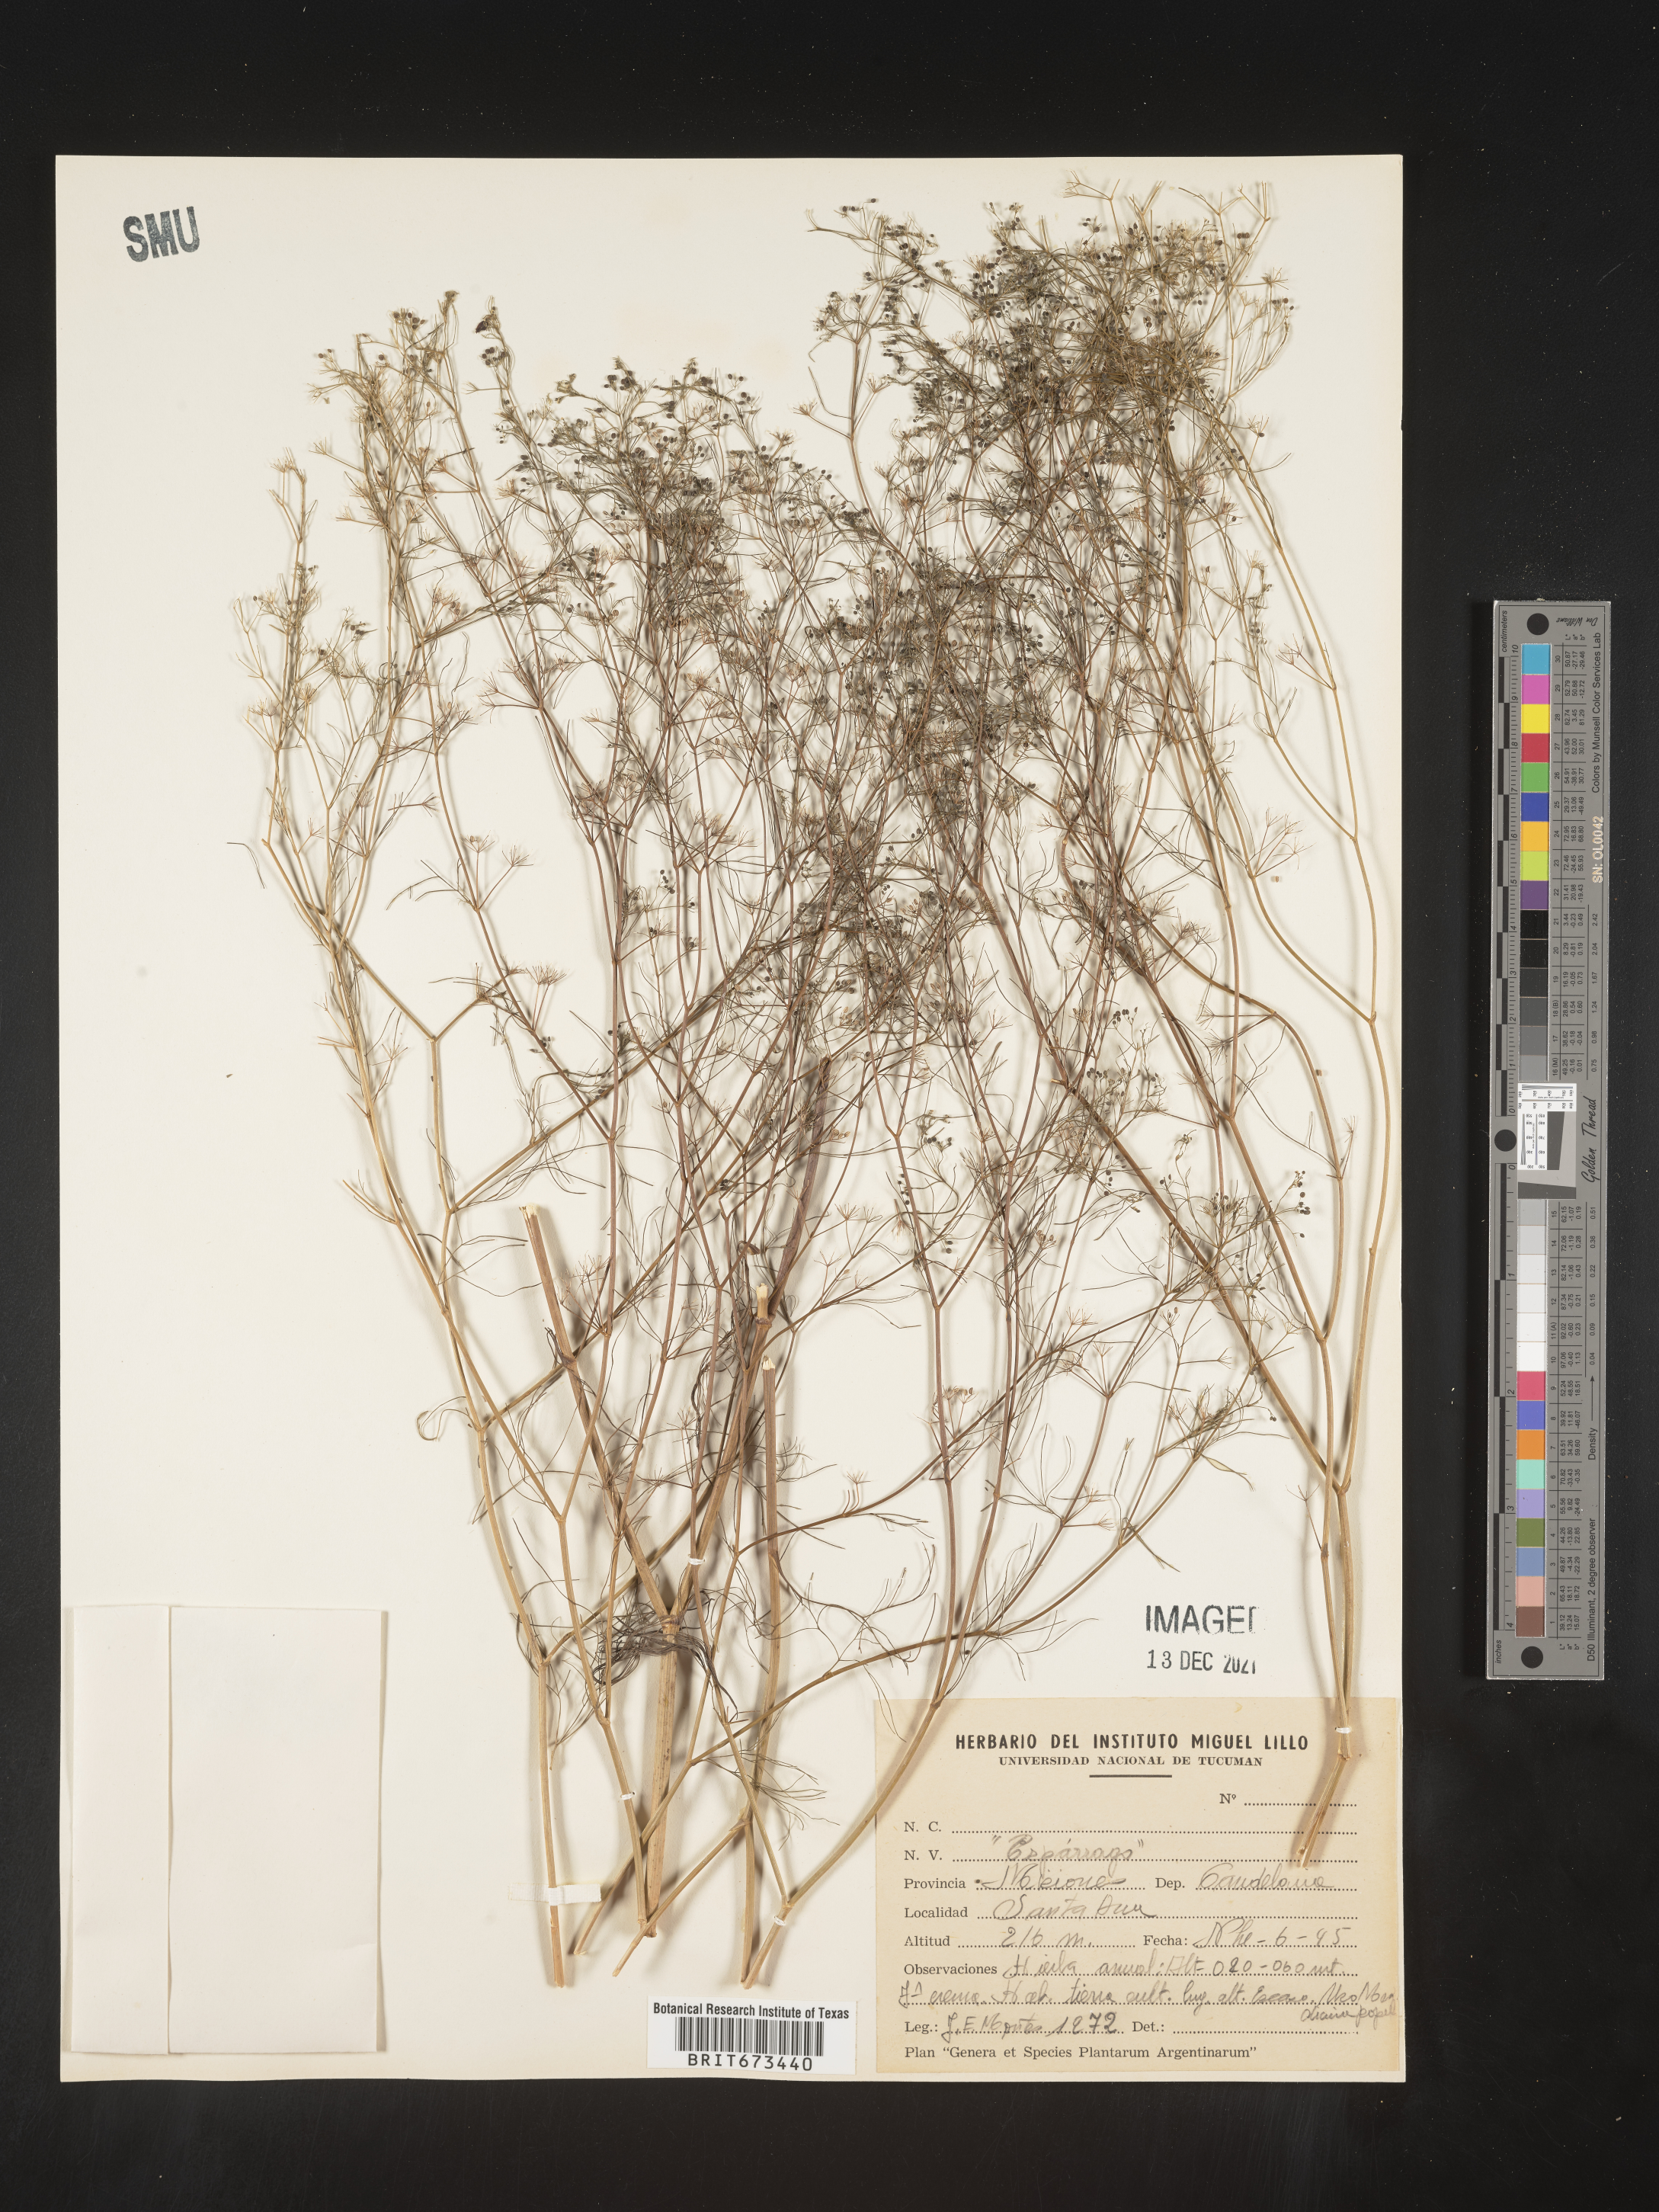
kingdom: Plantae
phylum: Tracheophyta
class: Magnoliopsida
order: Apiales
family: Apiaceae
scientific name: Apiaceae
